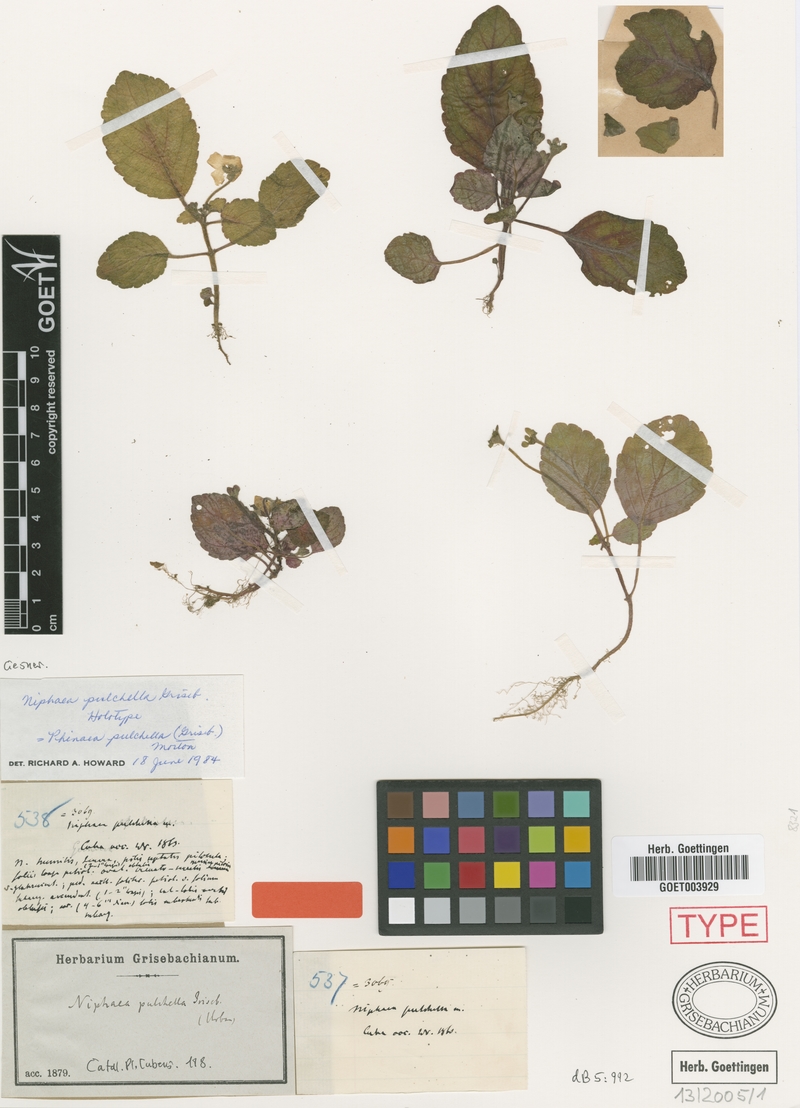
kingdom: Plantae
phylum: Tracheophyta
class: Magnoliopsida
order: Lamiales
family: Gesneriaceae
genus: Phinaea
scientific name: Phinaea pulchella
